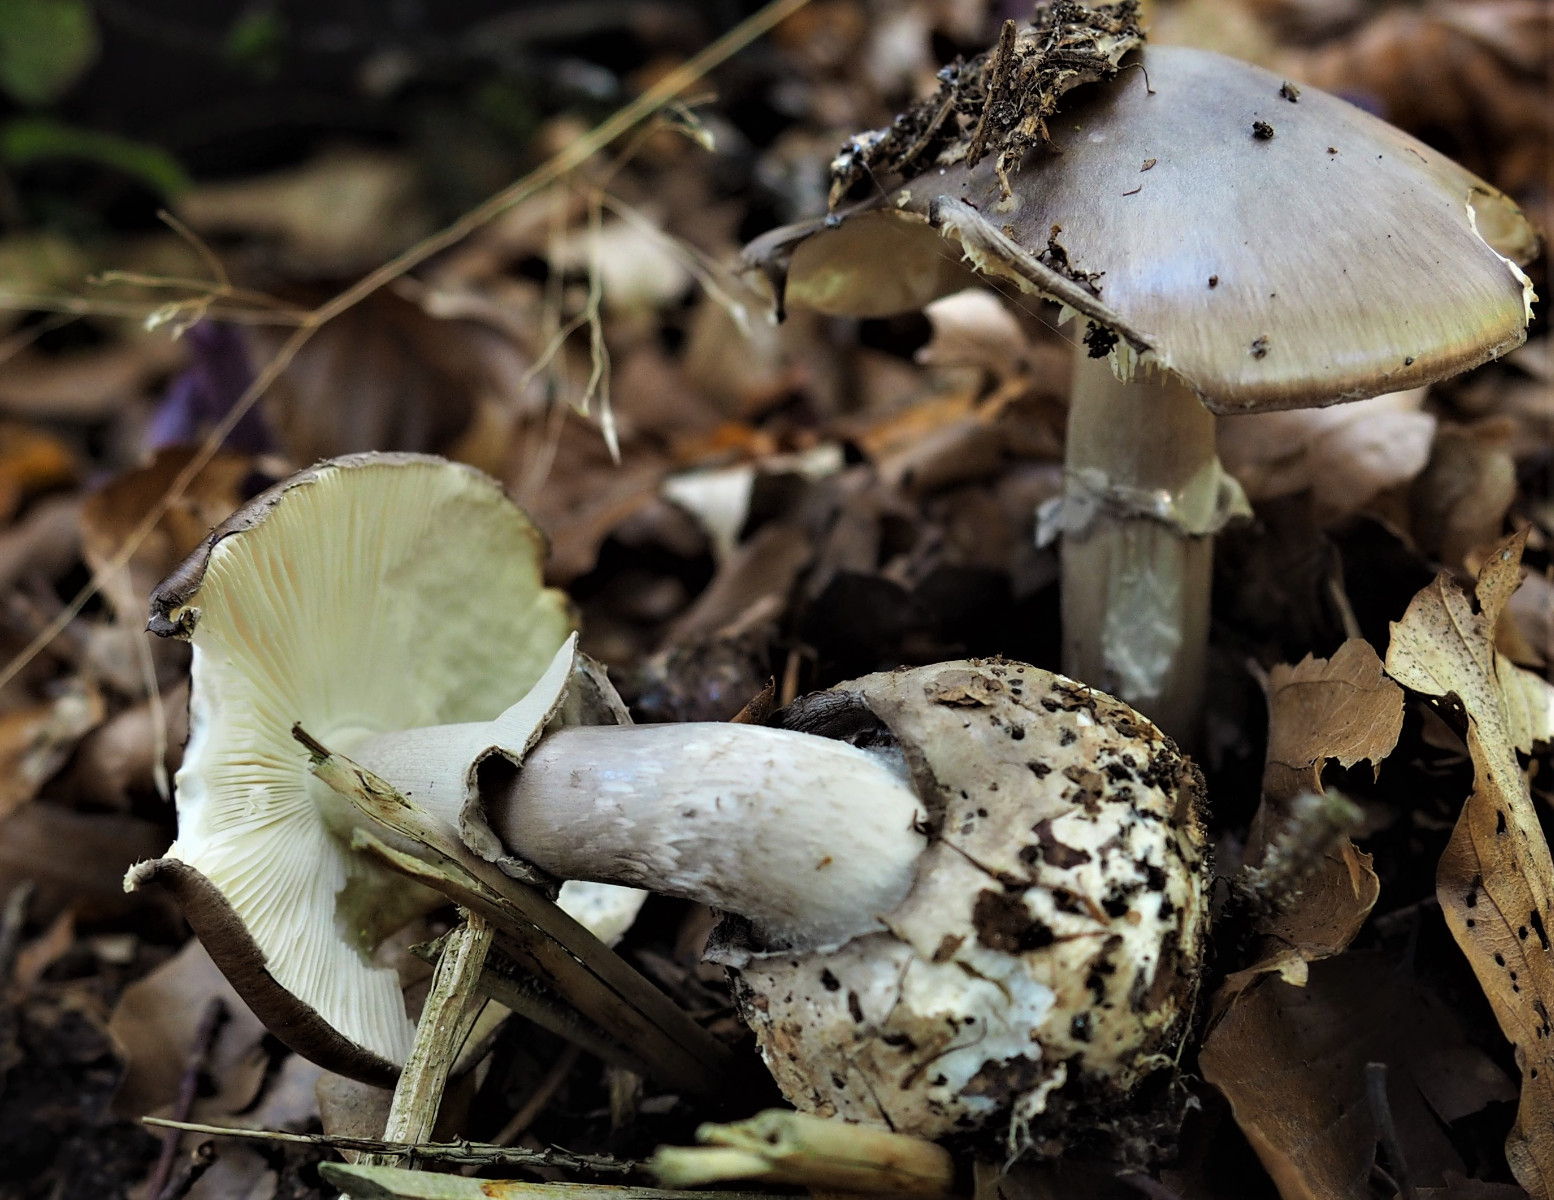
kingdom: Fungi
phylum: Basidiomycota
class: Agaricomycetes
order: Agaricales
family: Amanitaceae
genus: Amanita
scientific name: Amanita porphyria
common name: porfyr-fluesvamp
